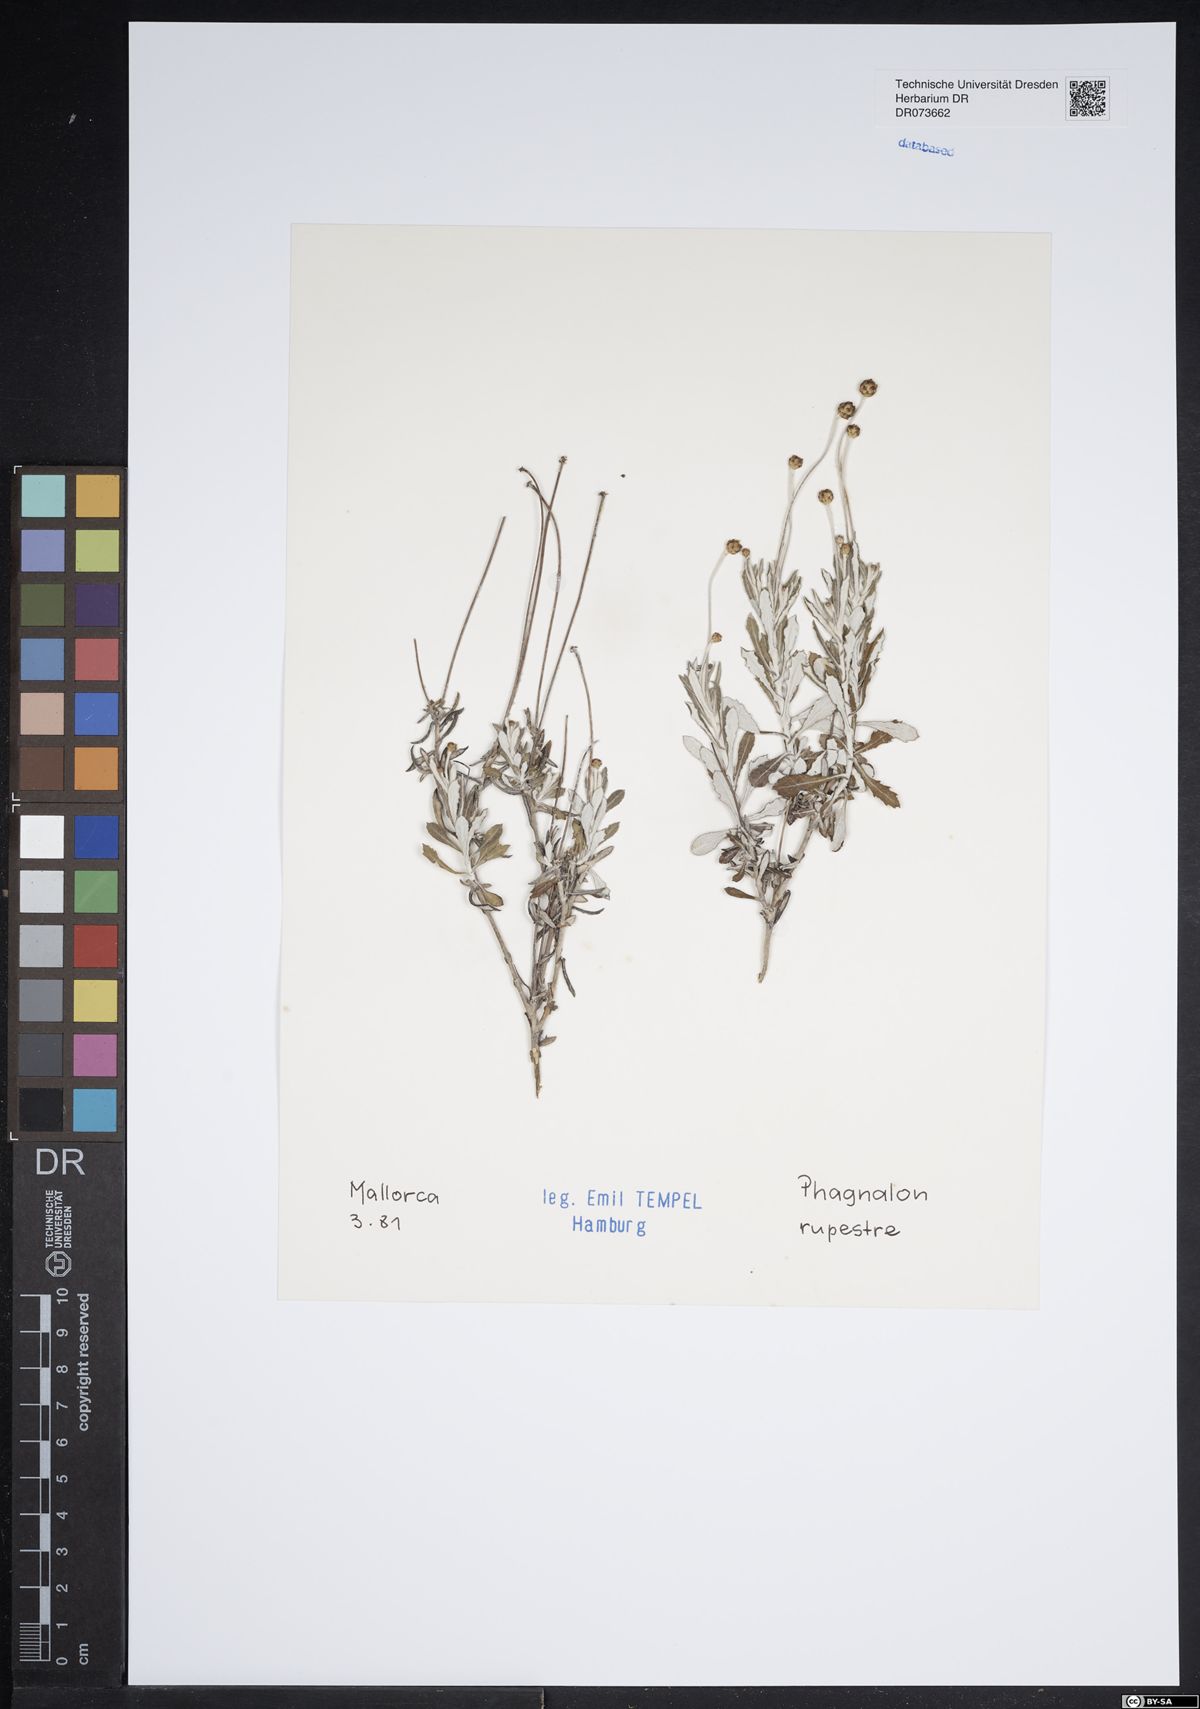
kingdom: Plantae
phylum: Tracheophyta
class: Magnoliopsida
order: Asterales
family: Asteraceae
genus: Phagnalon
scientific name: Phagnalon rupestre
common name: Rock phagnalon
